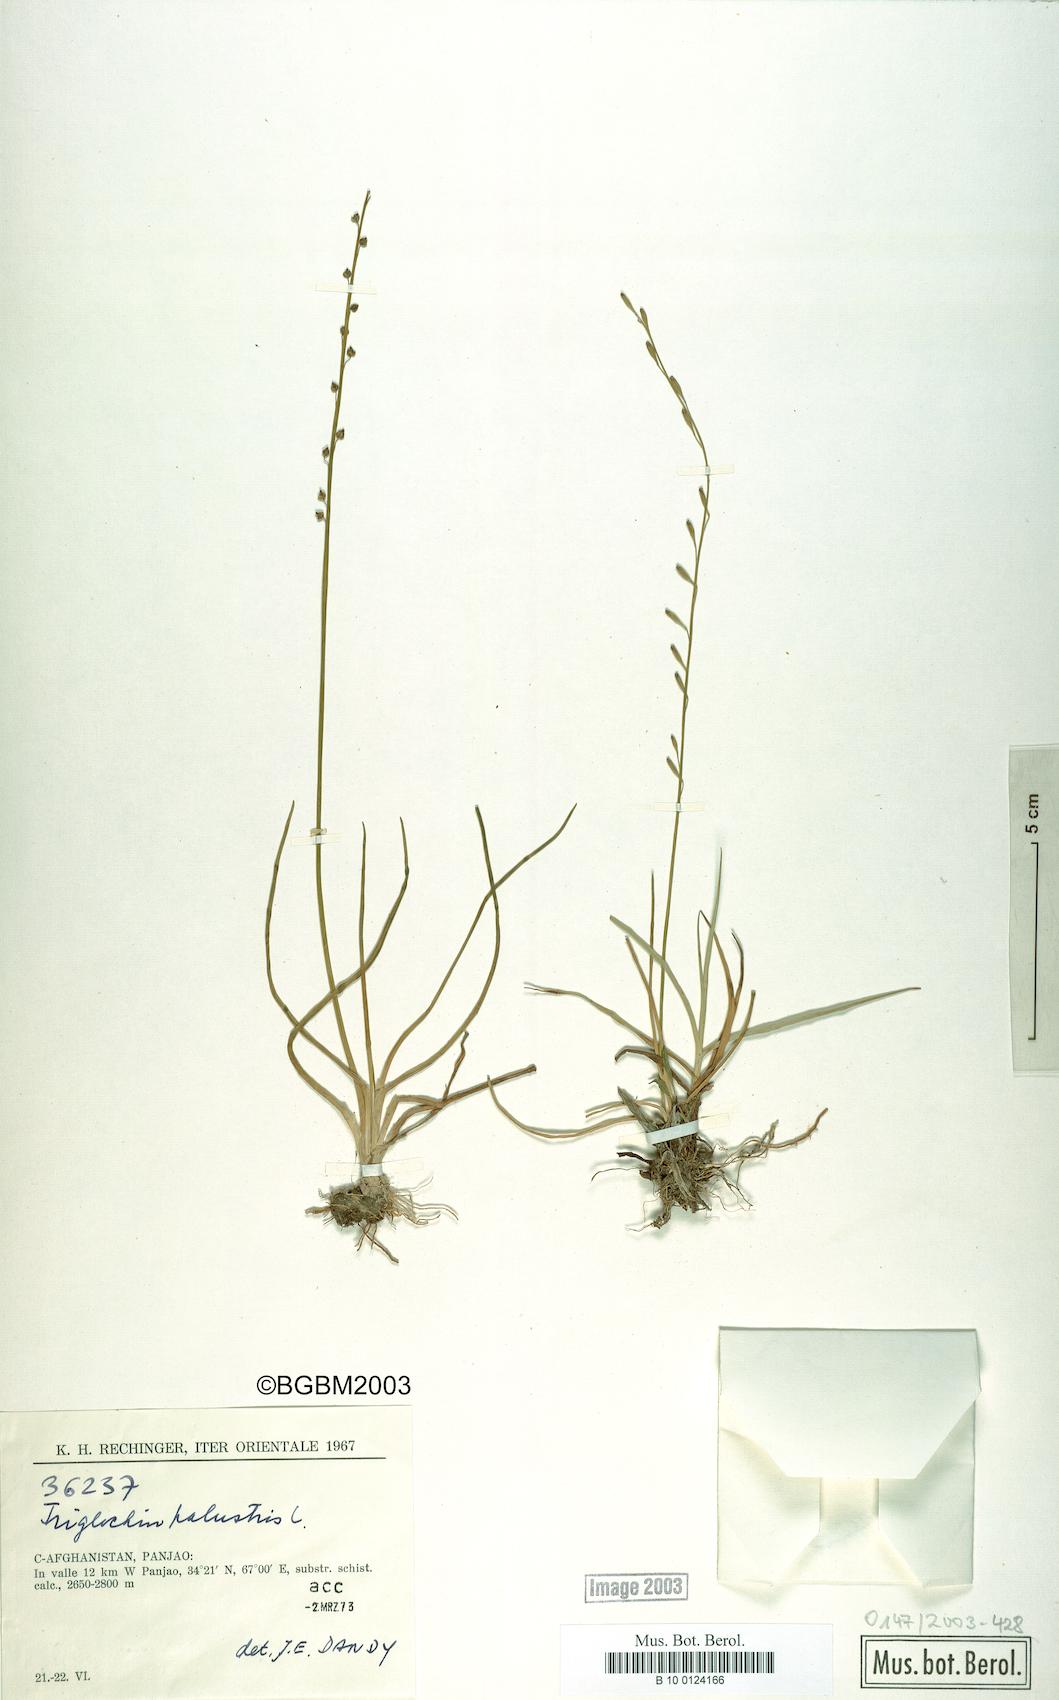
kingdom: Plantae
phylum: Tracheophyta
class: Liliopsida
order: Alismatales
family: Juncaginaceae
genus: Triglochin
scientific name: Triglochin palustris
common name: Marsh arrowgrass
